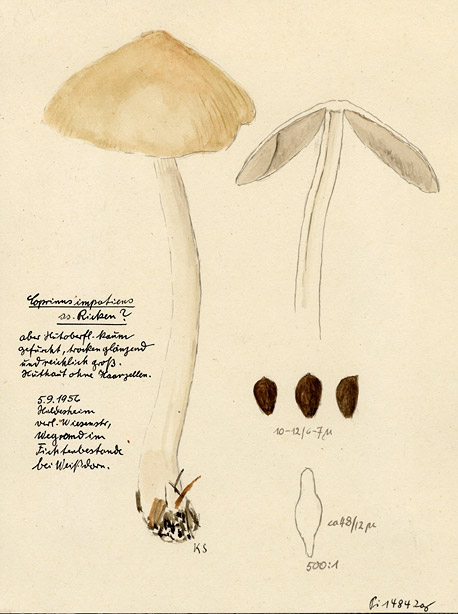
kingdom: Fungi
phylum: Basidiomycota
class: Agaricomycetes
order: Agaricales
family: Psathyrellaceae
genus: Tulosesus
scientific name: Tulosesus impatiens
